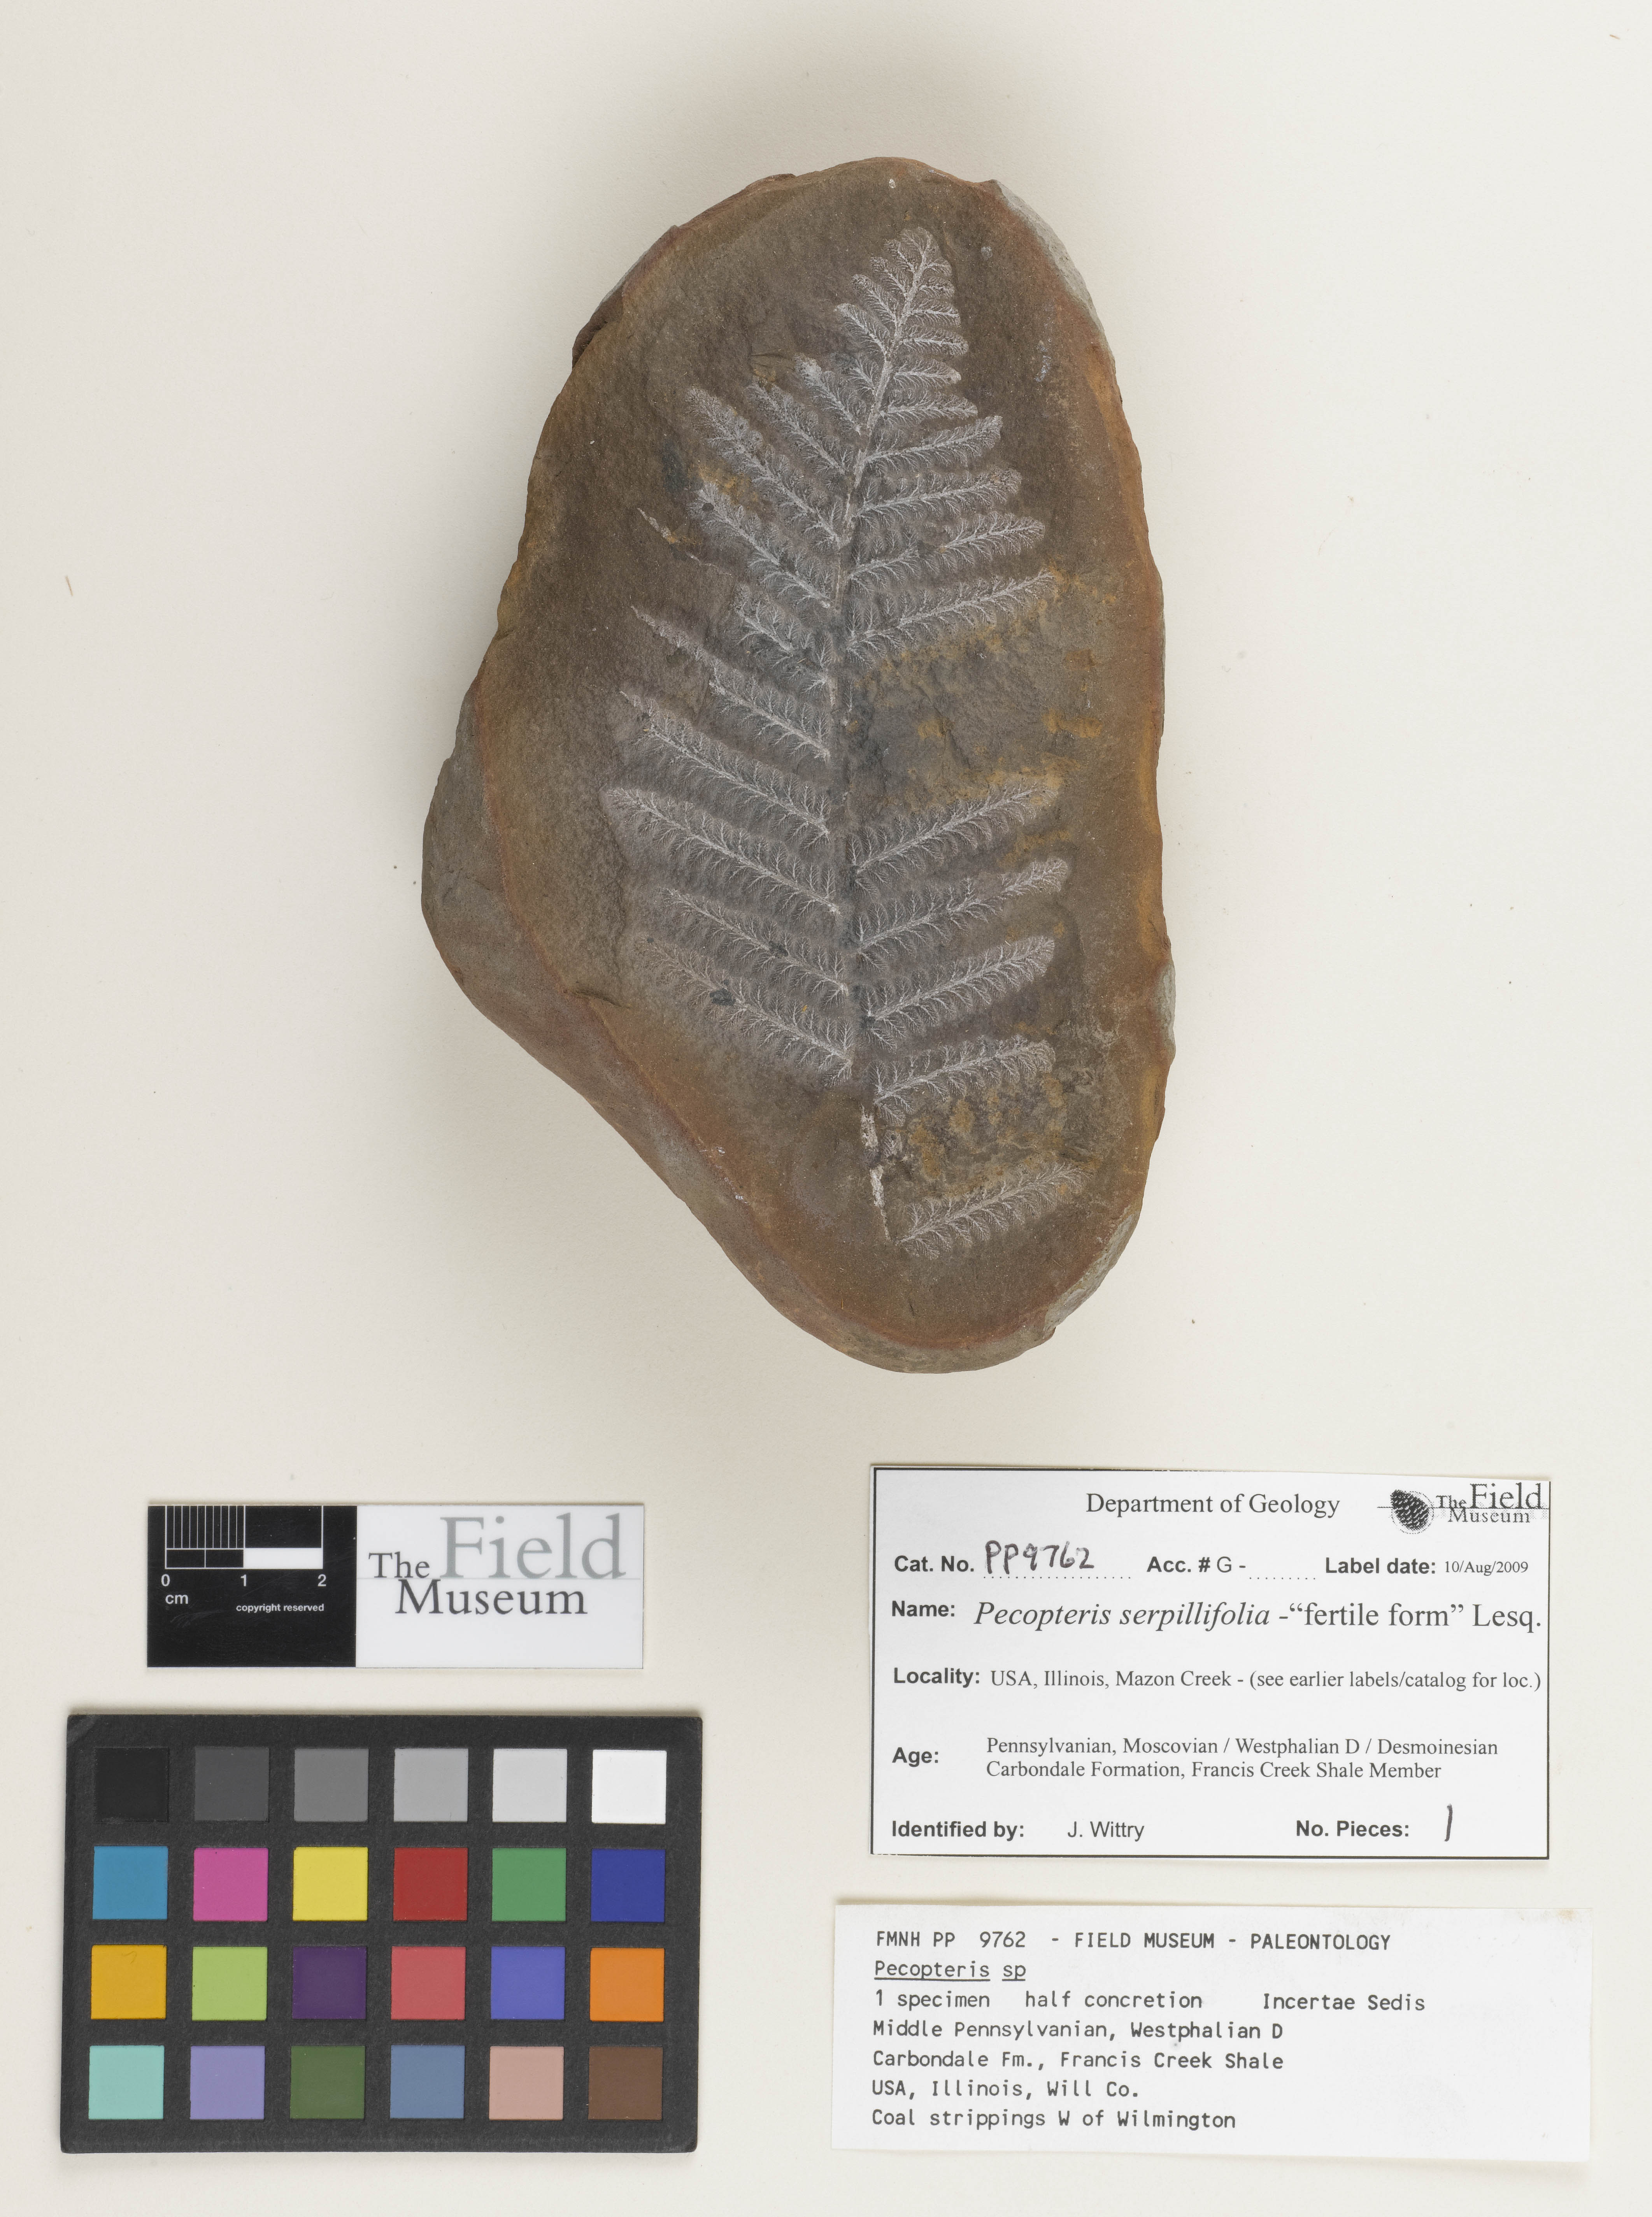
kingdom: Plantae
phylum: Tracheophyta
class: Polypodiopsida
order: Marattiales
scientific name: Marattiales
